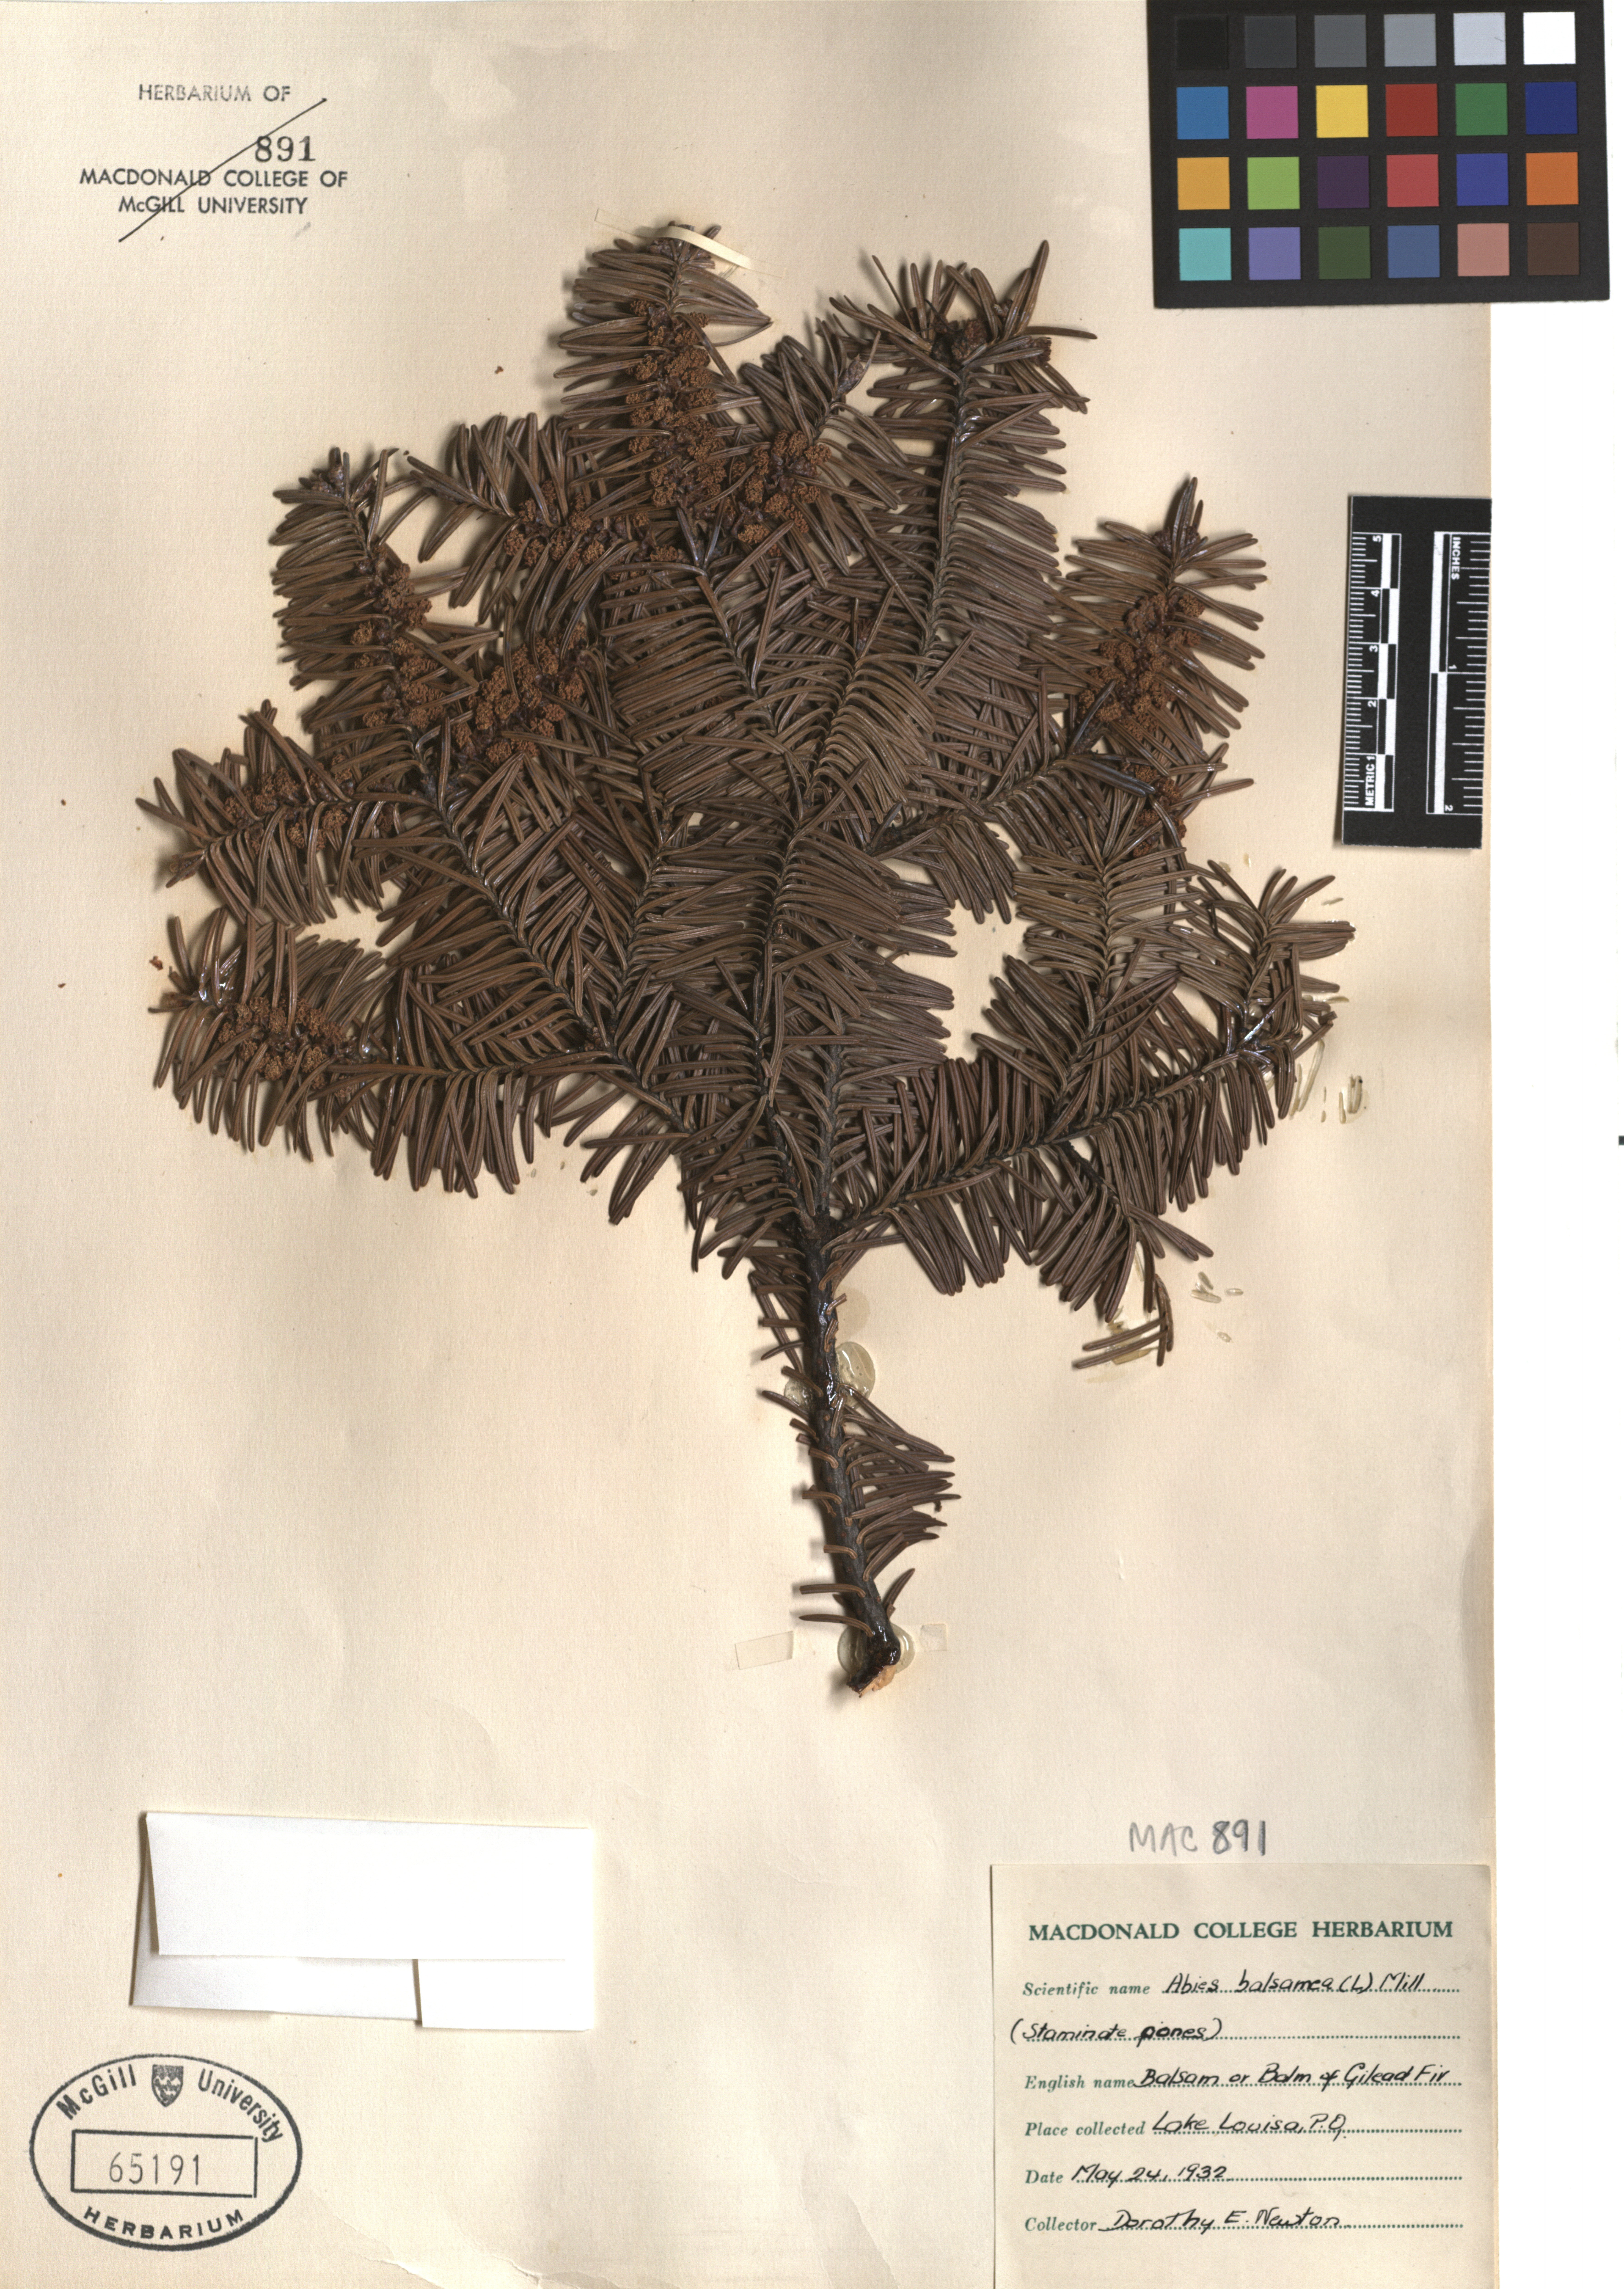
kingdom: Plantae
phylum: Tracheophyta
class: Pinopsida
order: Pinales
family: Pinaceae
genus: Abies
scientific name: Abies balsamea
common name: Balsam fir
